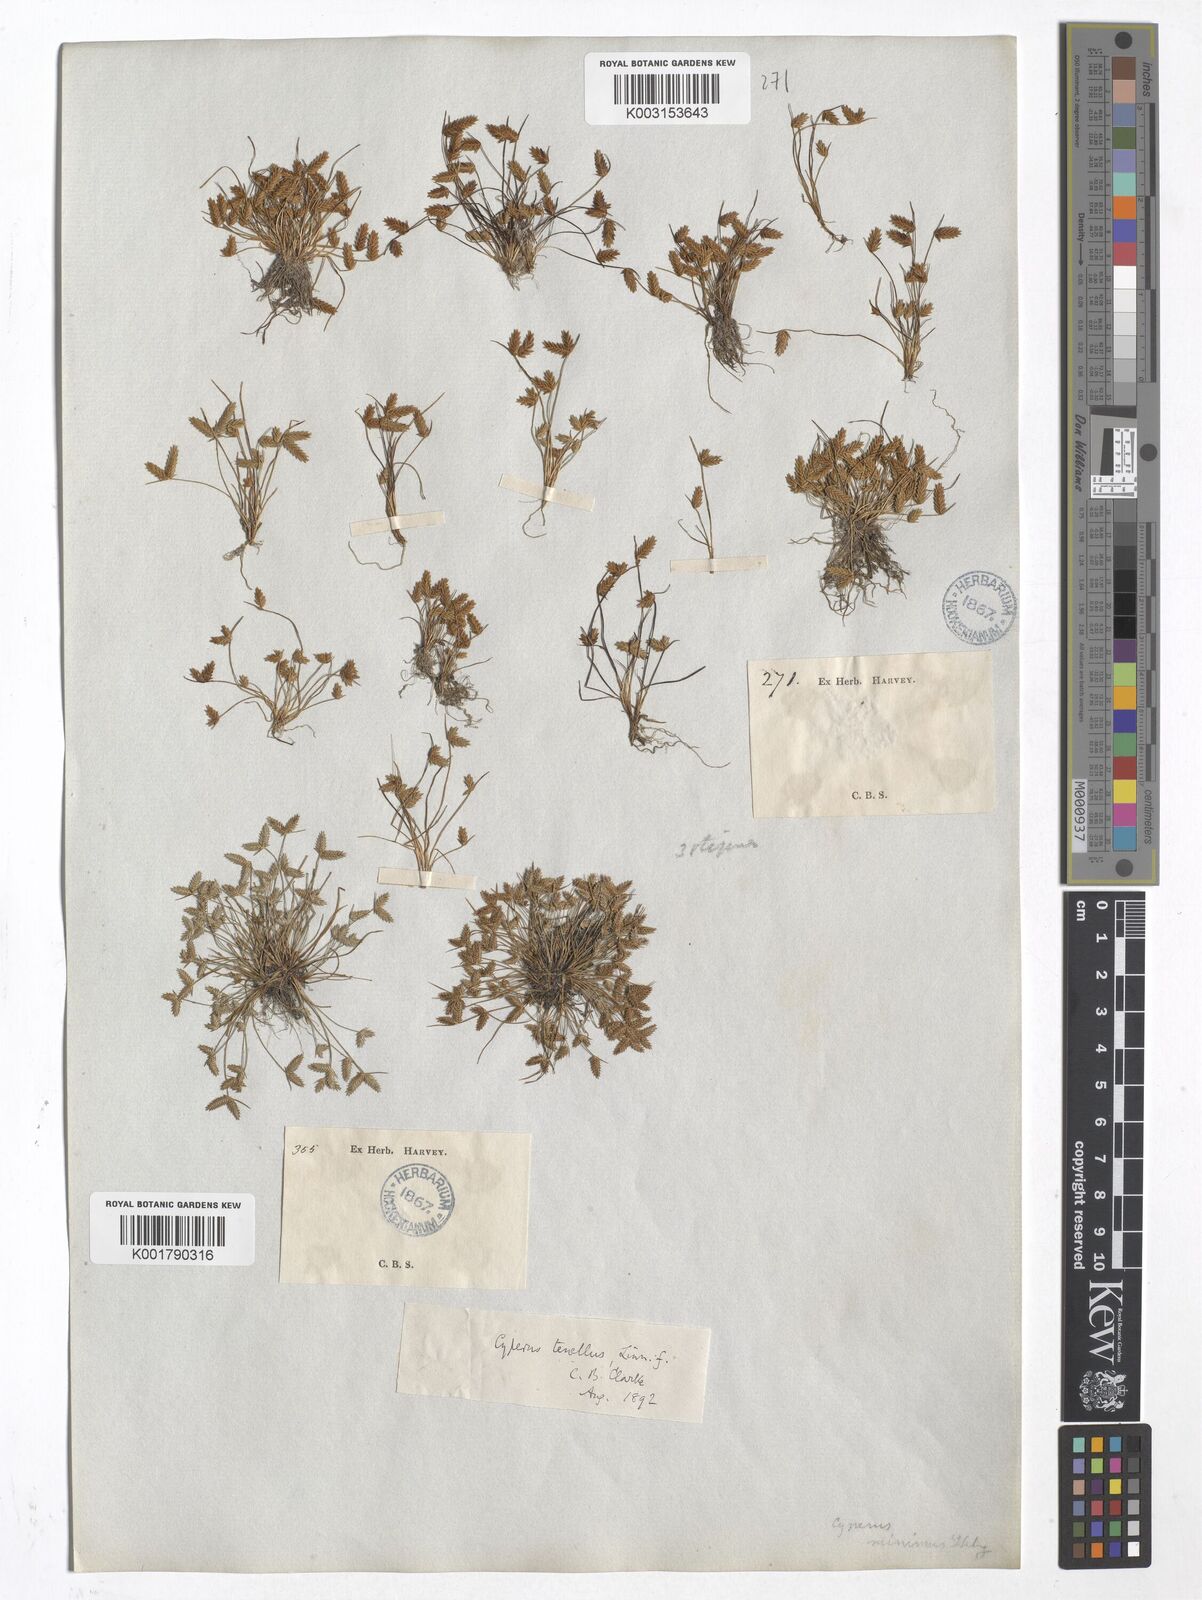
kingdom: Plantae
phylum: Tracheophyta
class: Liliopsida
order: Poales
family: Cyperaceae
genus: Isolepis
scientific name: Isolepis levynsiana
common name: Sedge
